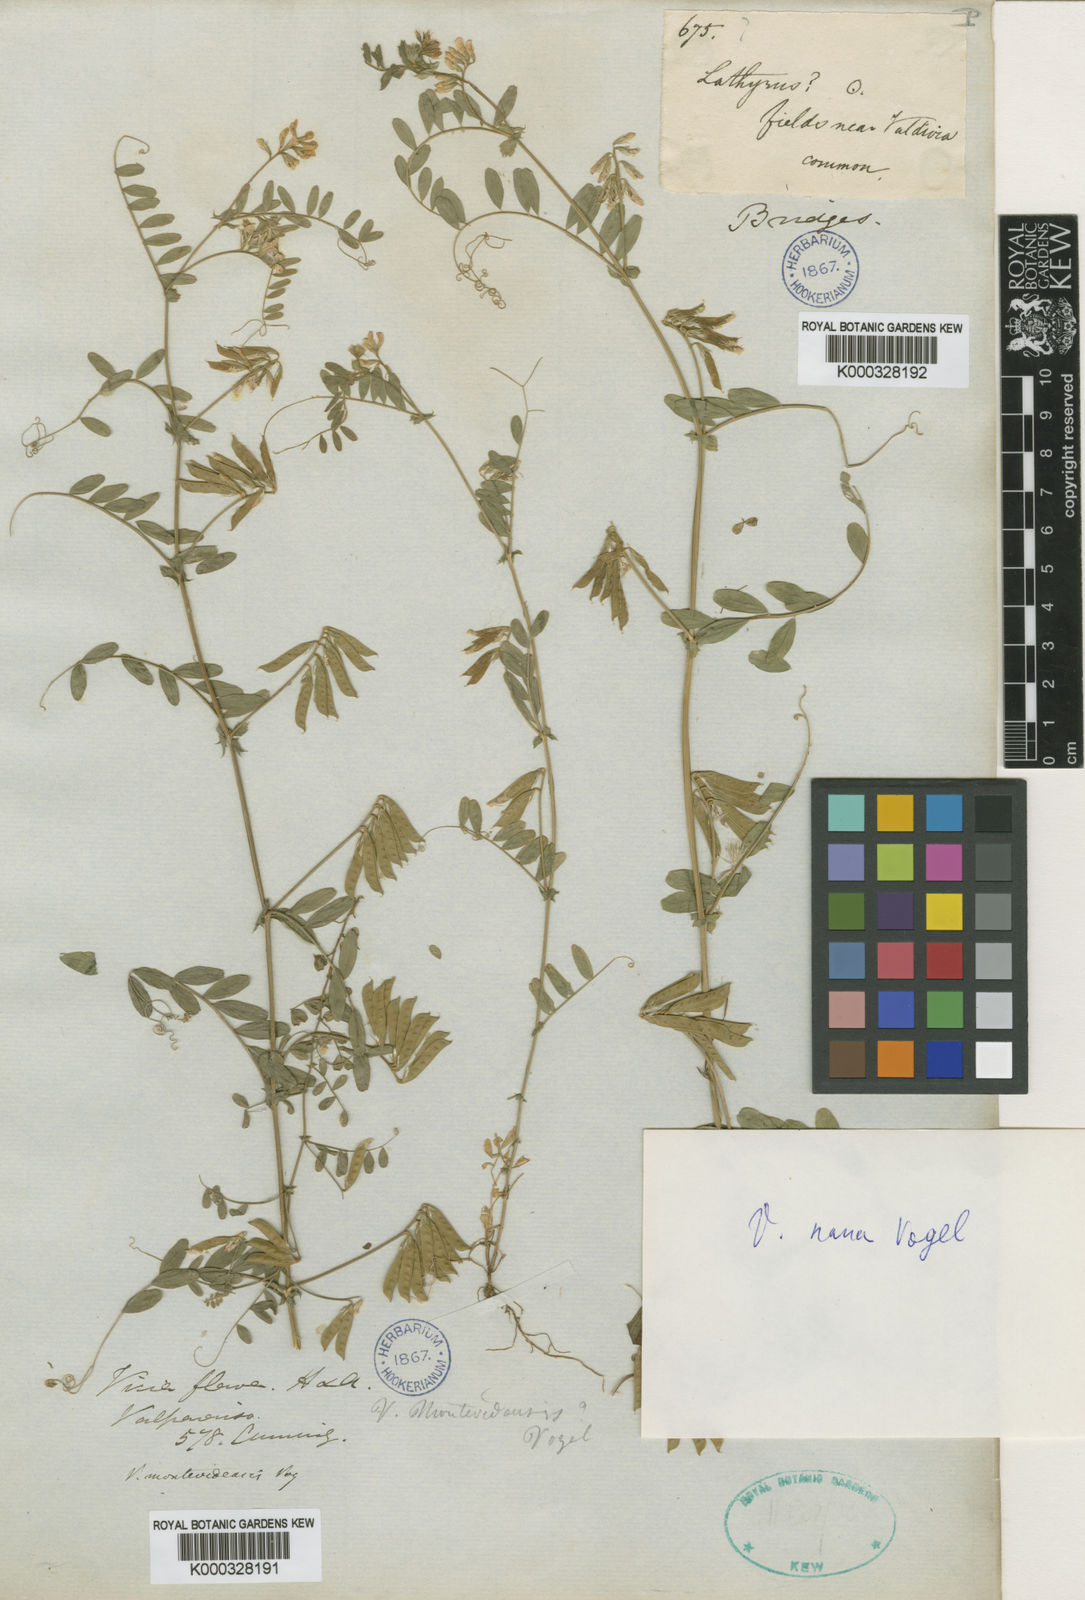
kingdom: Plantae
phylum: Tracheophyta
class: Magnoliopsida
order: Fabales
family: Fabaceae
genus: Vicia
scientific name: Vicia nana
